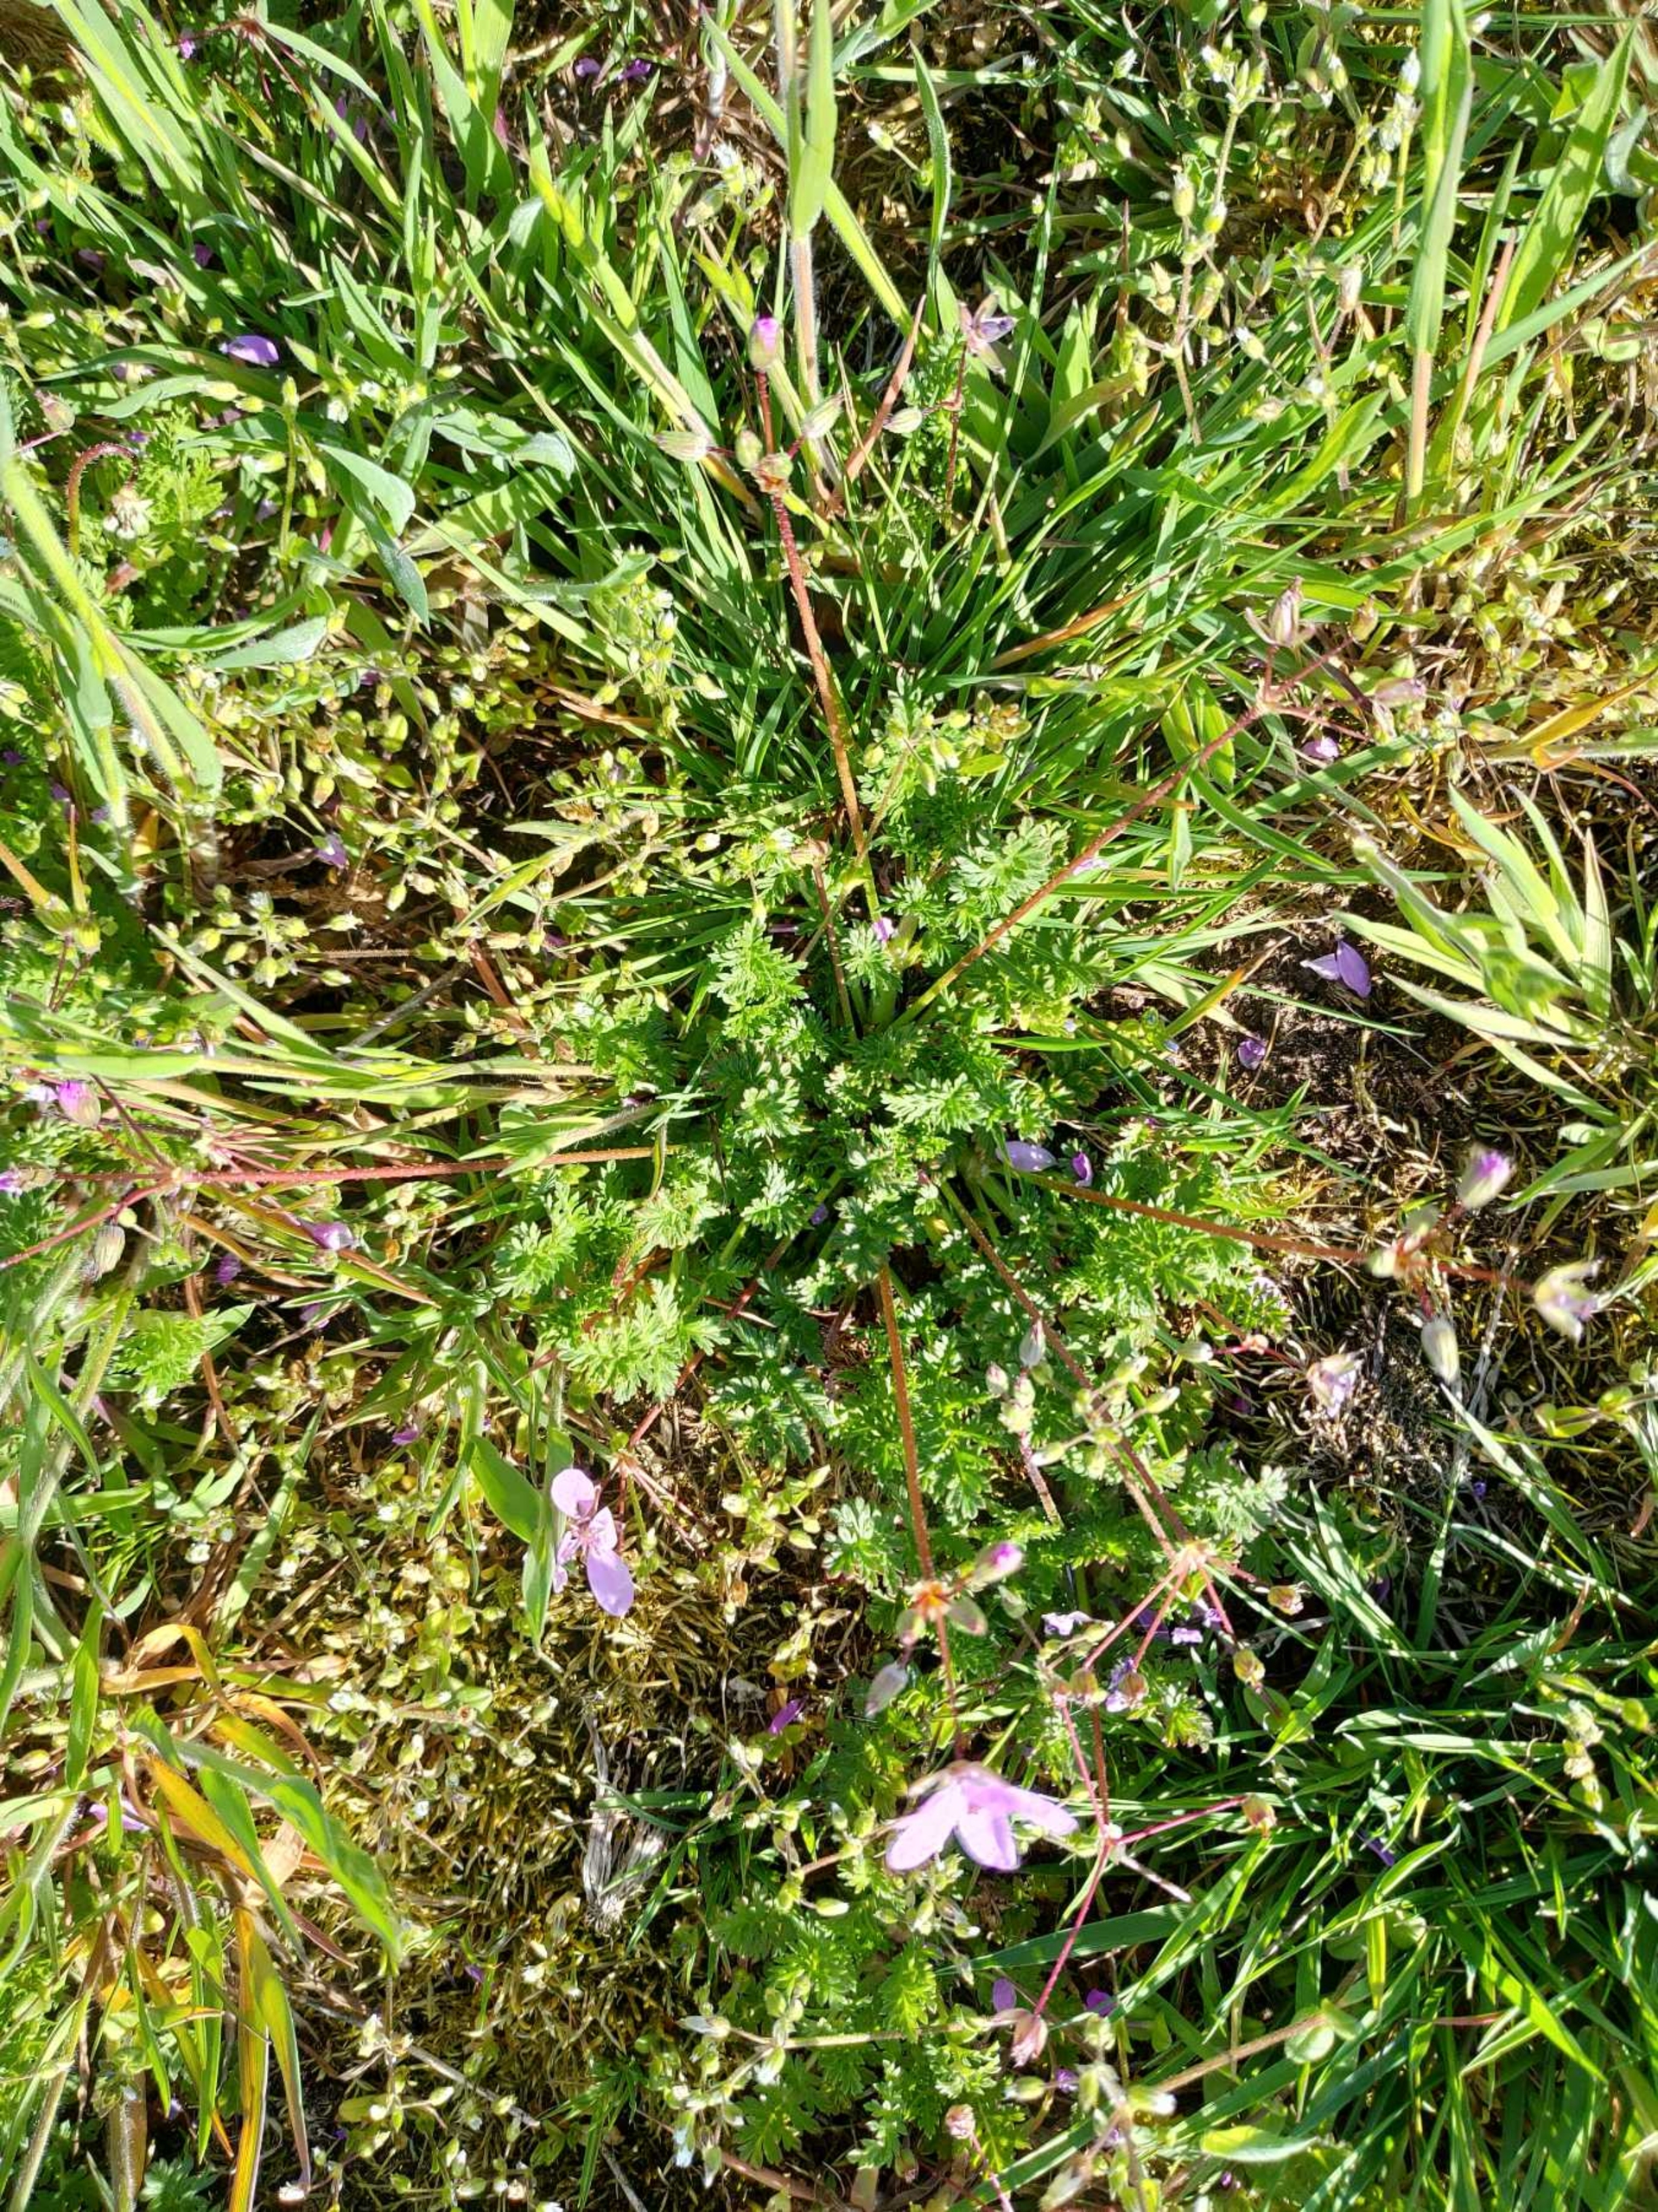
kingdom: Plantae
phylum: Tracheophyta
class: Magnoliopsida
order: Geraniales
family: Geraniaceae
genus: Erodium
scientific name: Erodium cicutarium
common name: Hejrenæb
